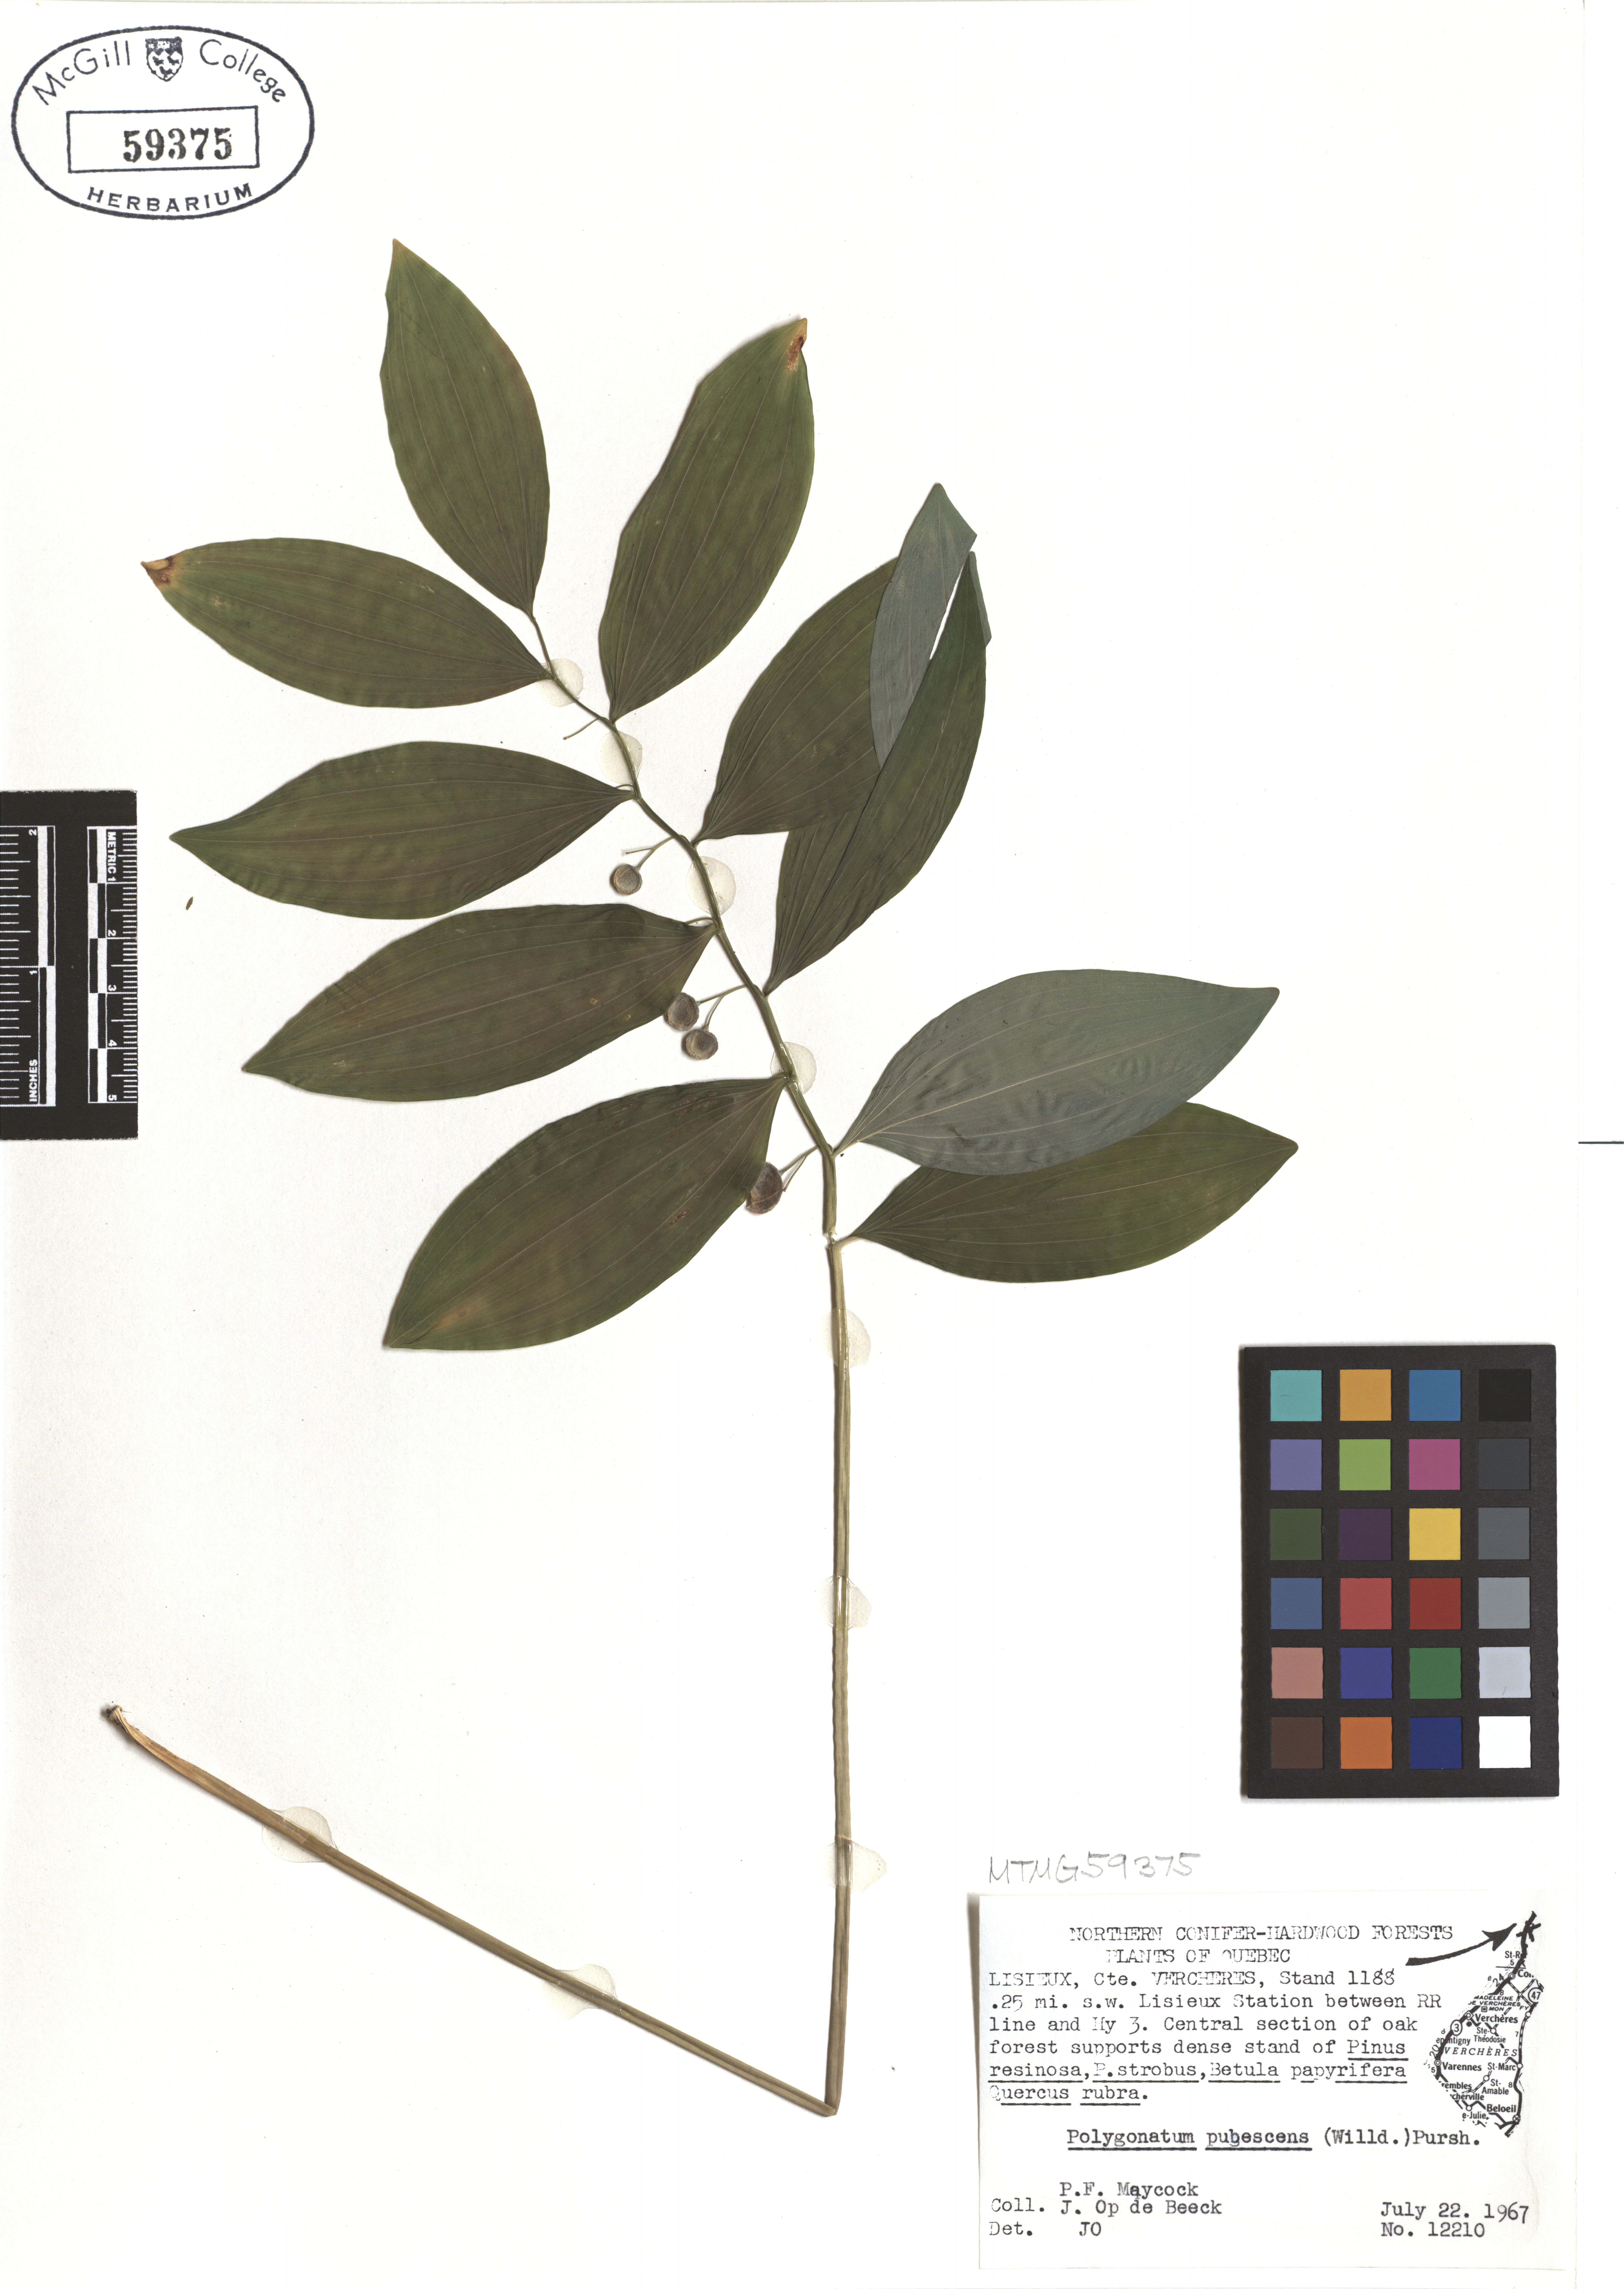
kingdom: Plantae
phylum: Tracheophyta
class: Liliopsida
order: Asparagales
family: Asparagaceae
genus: Polygonatum
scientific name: Polygonatum pubescens
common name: Downy solomon's seal
